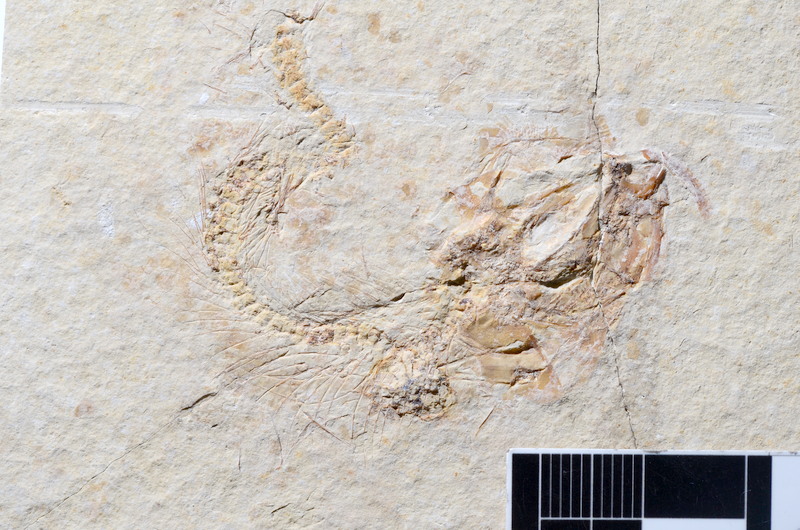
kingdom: Animalia
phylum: Chordata
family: Ascalaboidae
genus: Tharsis
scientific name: Tharsis dubius
